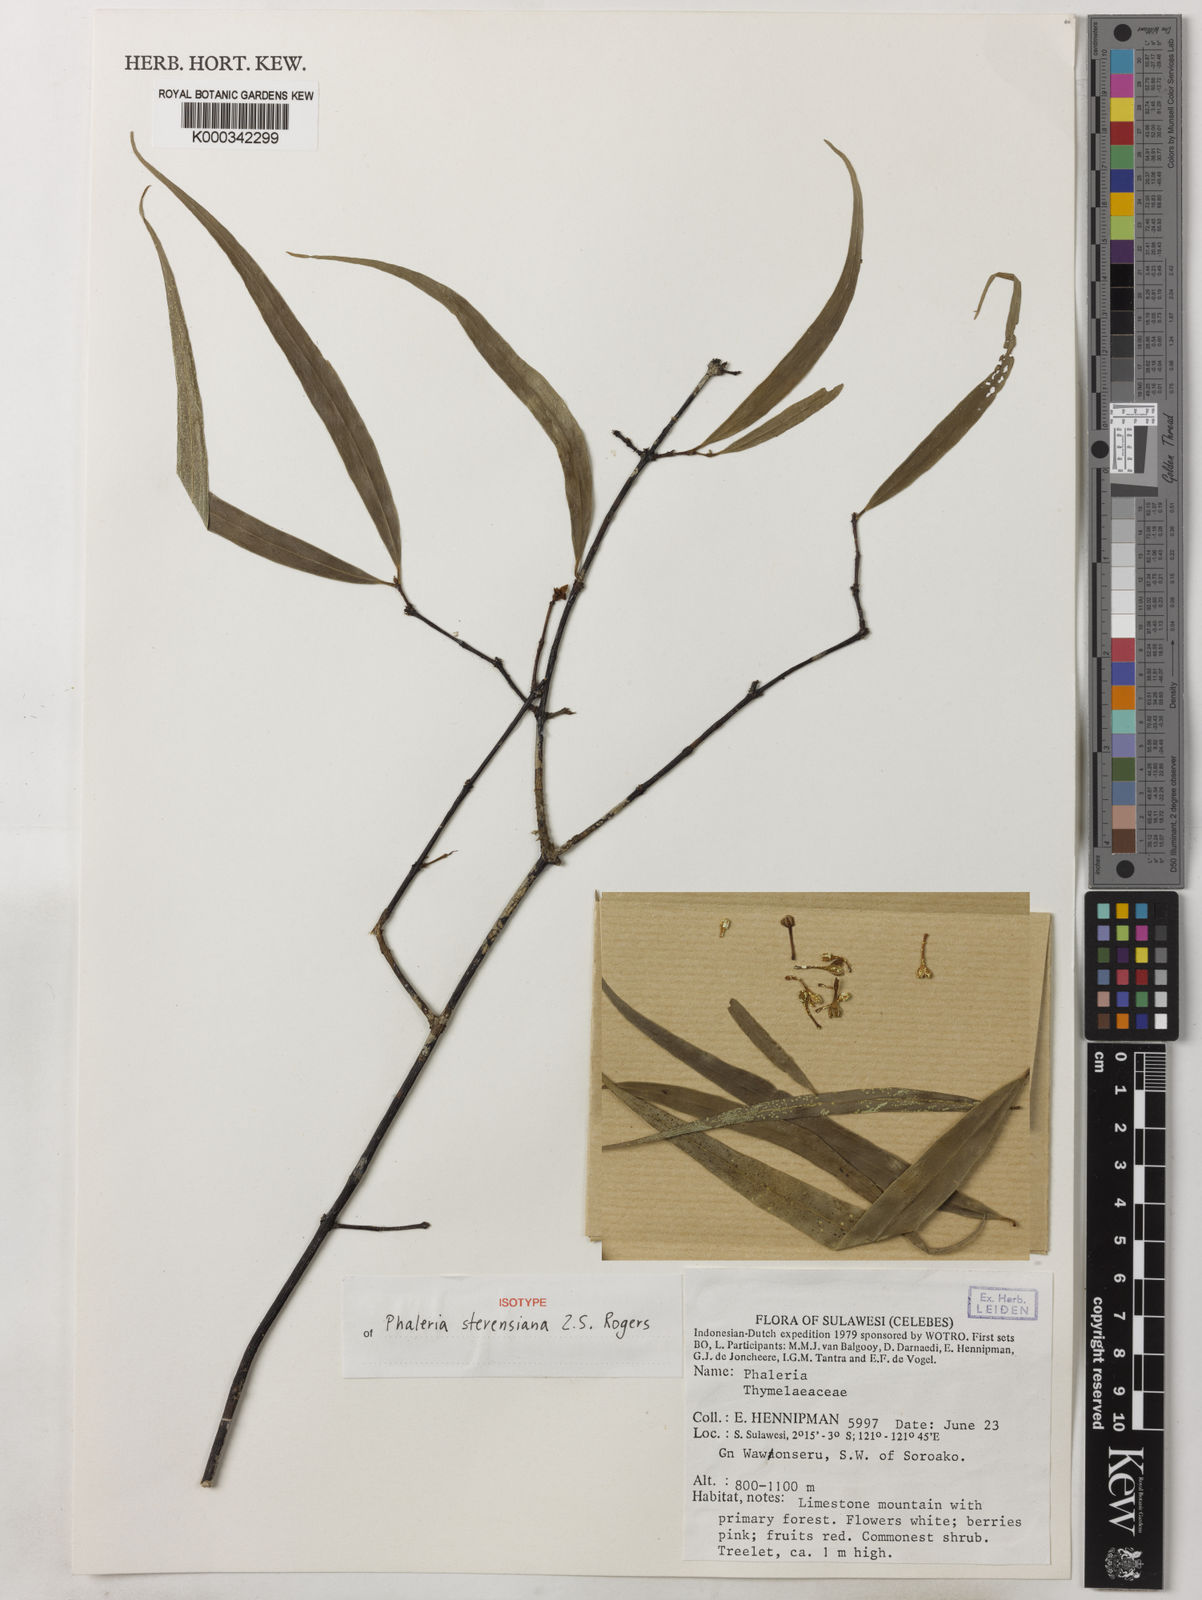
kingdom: Plantae
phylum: Tracheophyta
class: Magnoliopsida
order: Malvales
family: Thymelaeaceae
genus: Phaleria
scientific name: Phaleria
